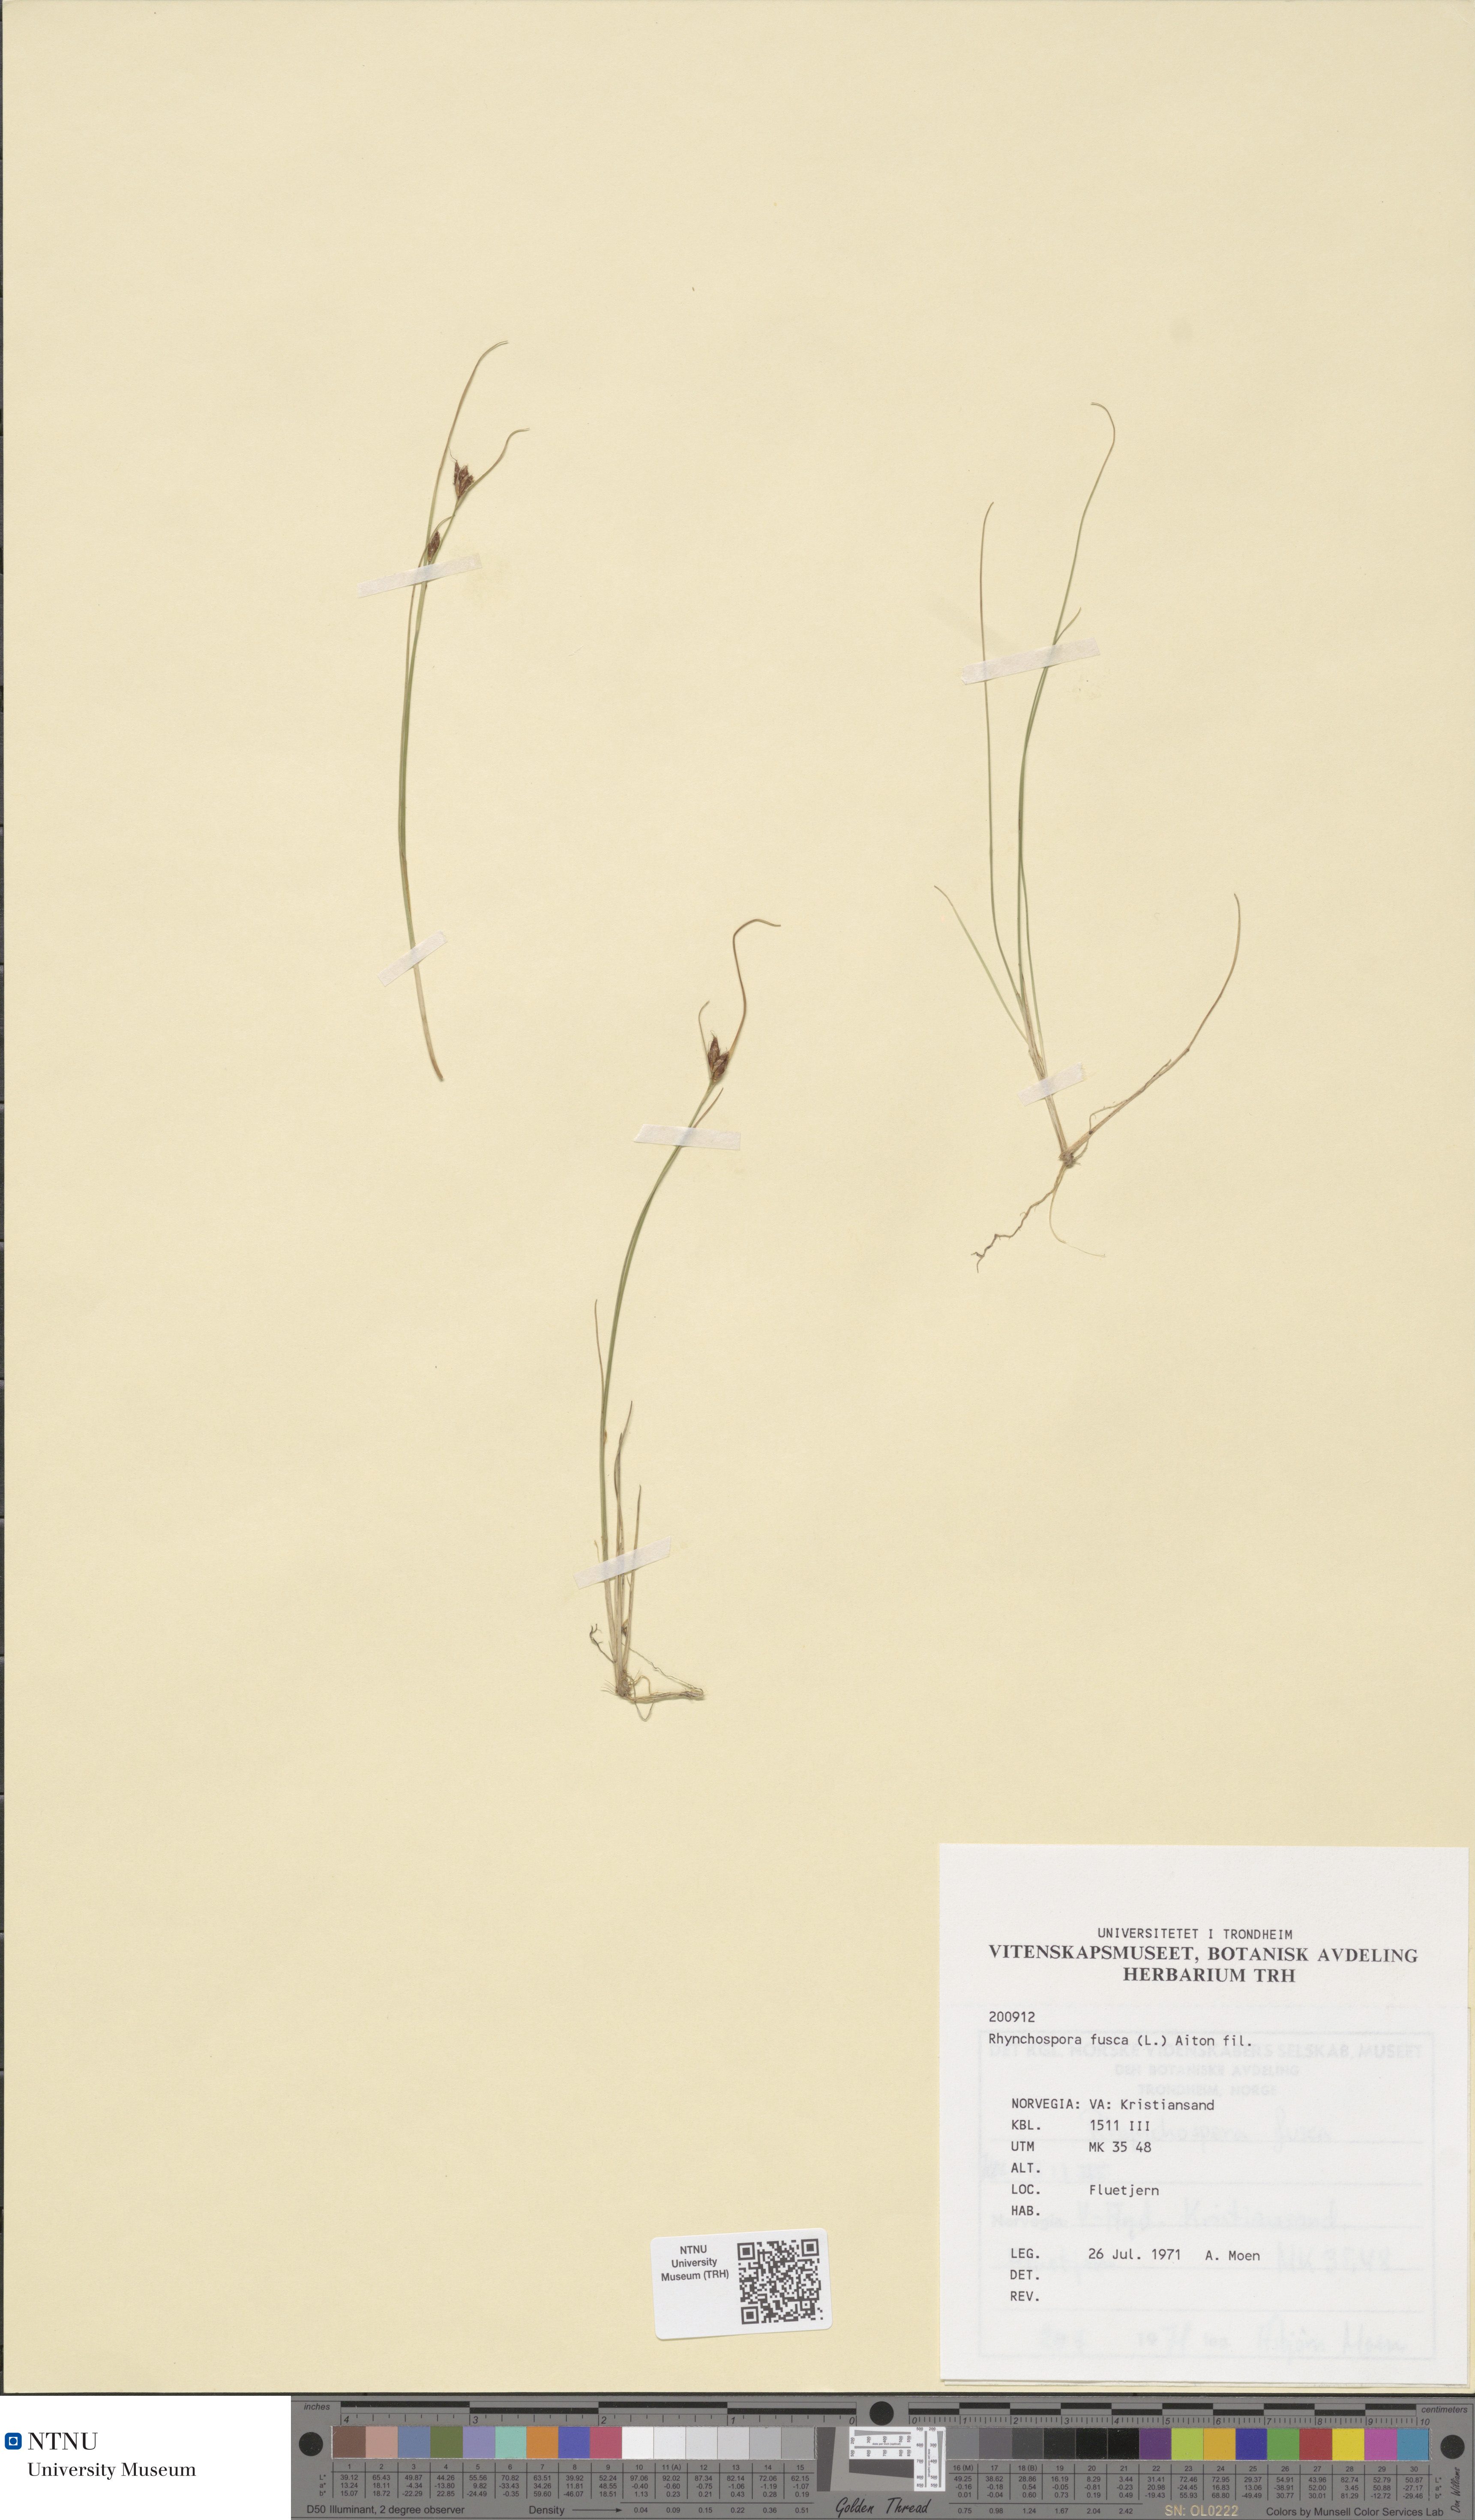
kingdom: Plantae
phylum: Tracheophyta
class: Liliopsida
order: Poales
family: Cyperaceae
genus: Rhynchospora
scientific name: Rhynchospora fusca
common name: Brown beak-sedge
